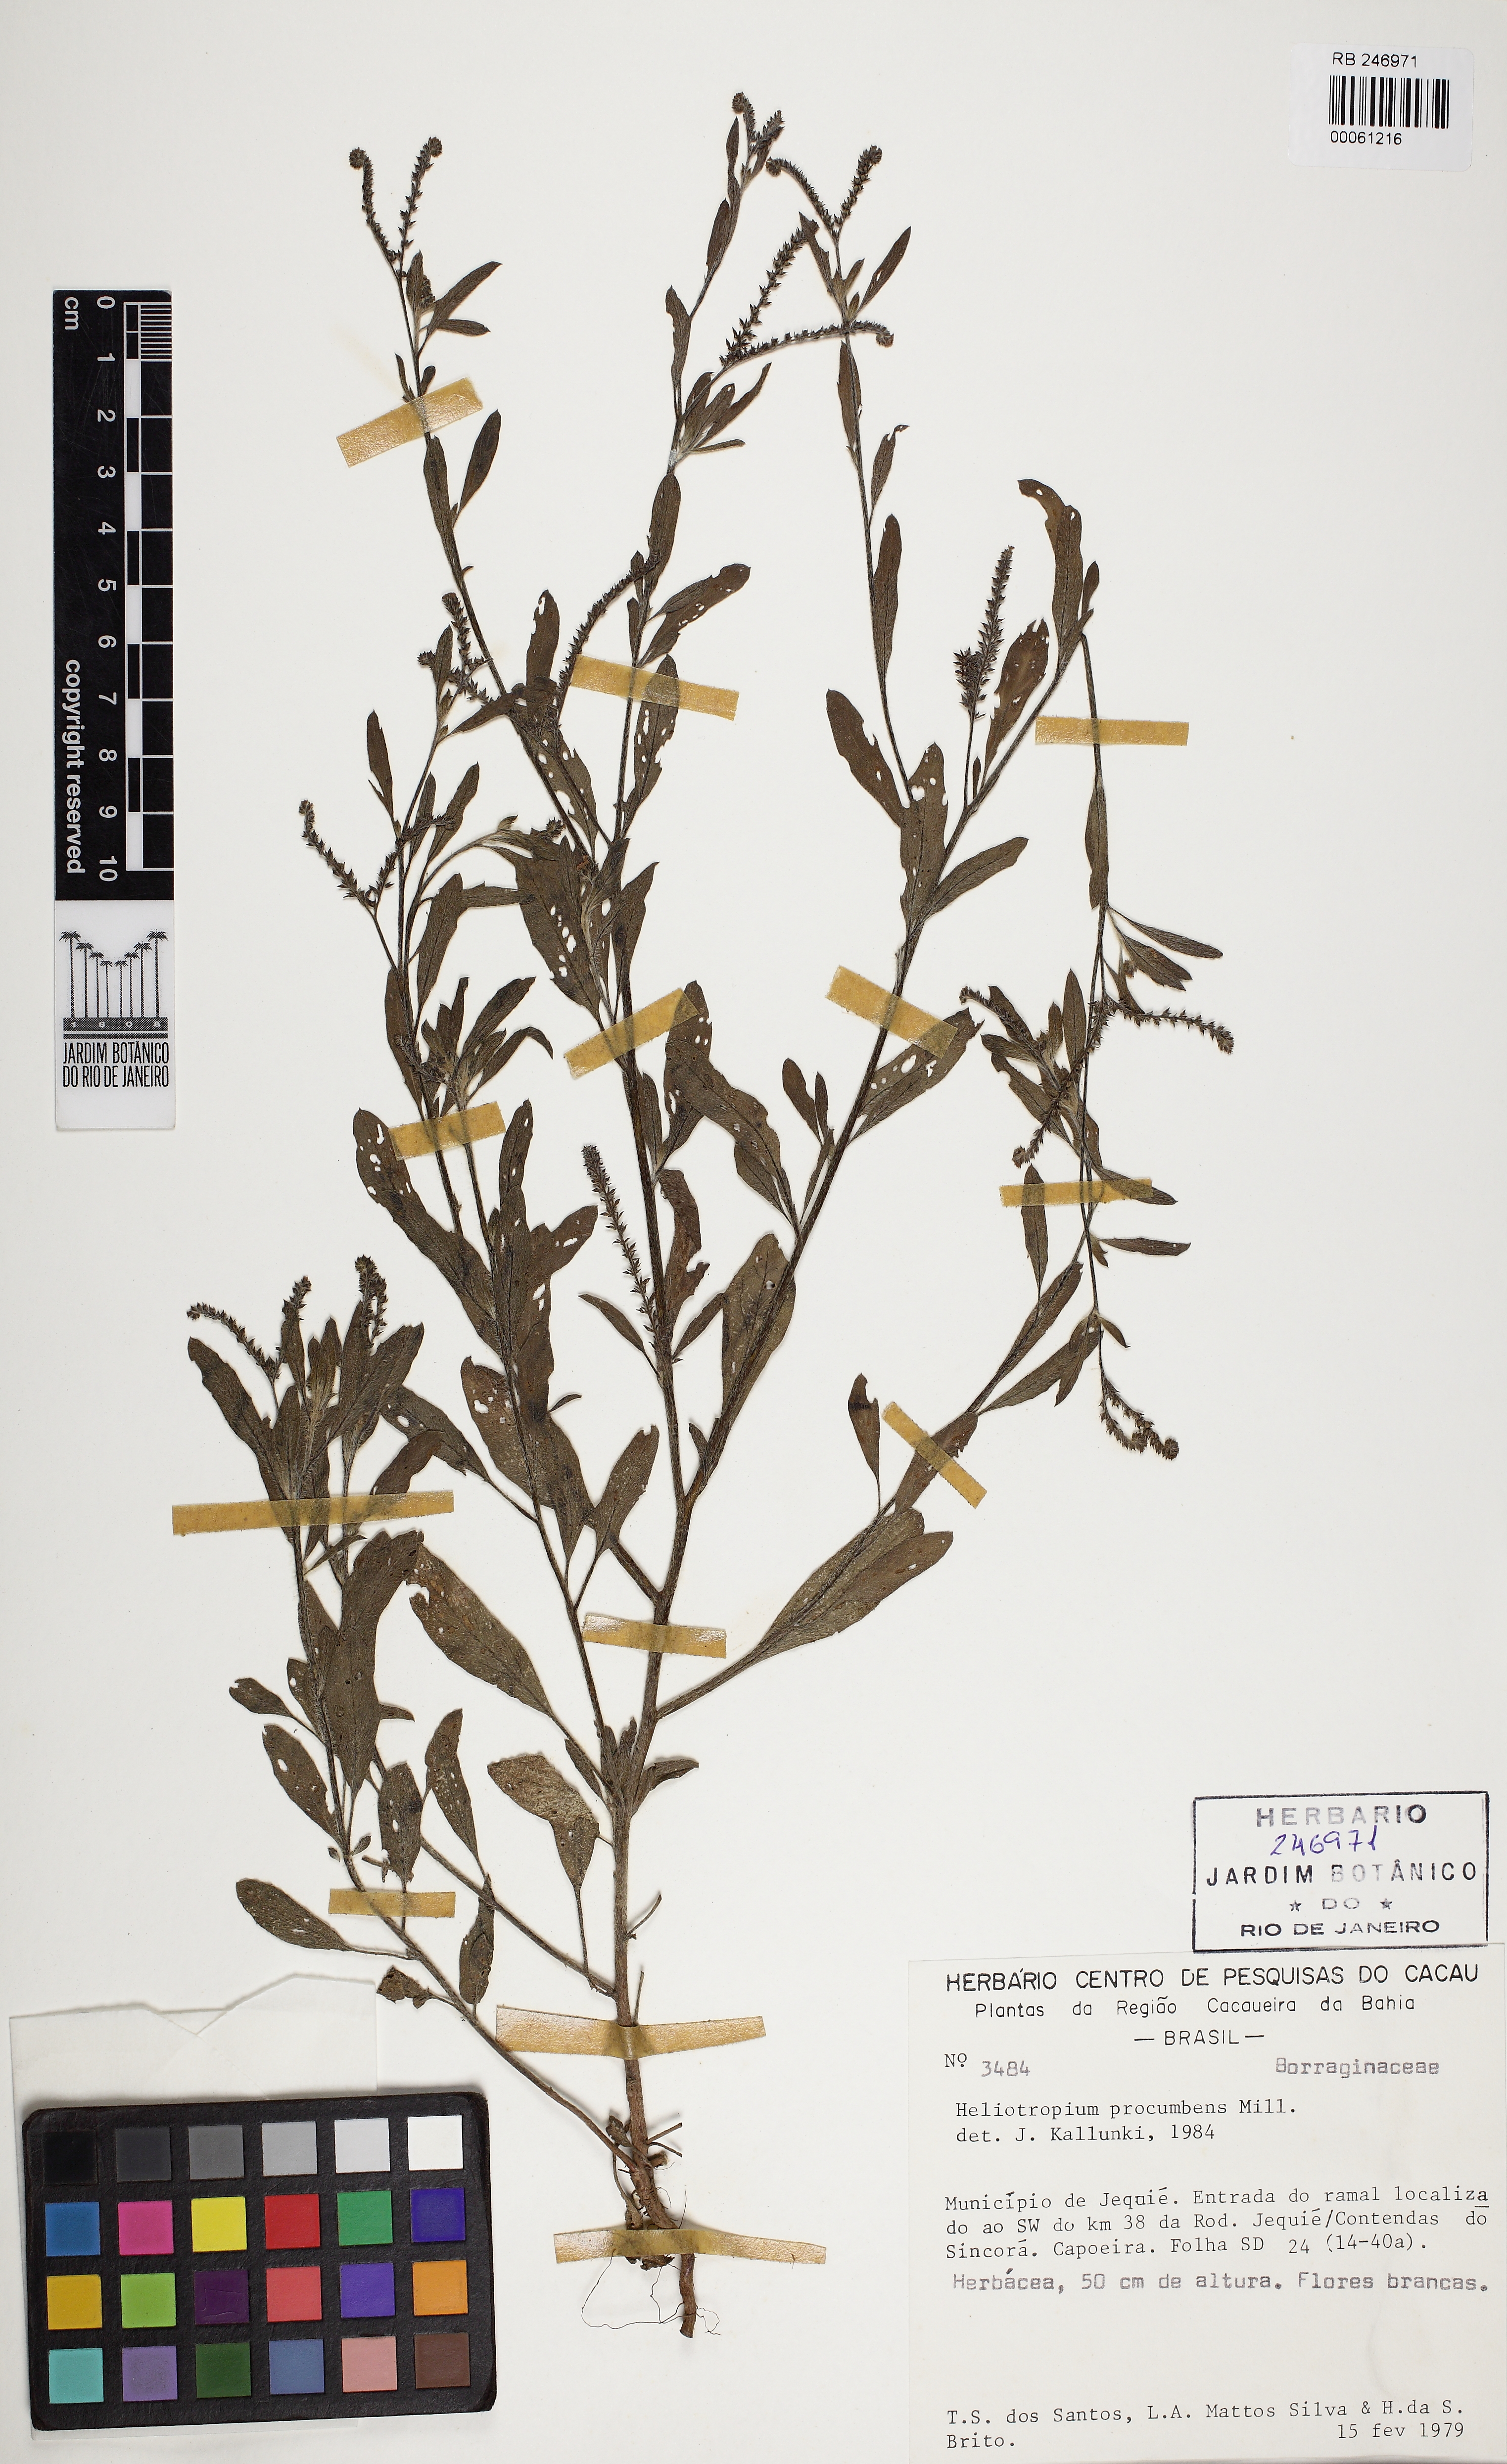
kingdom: Plantae
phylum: Tracheophyta
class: Magnoliopsida
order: Boraginales
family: Heliotropiaceae
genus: Euploca
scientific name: Euploca procumbens
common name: Fourspike heliotrope
